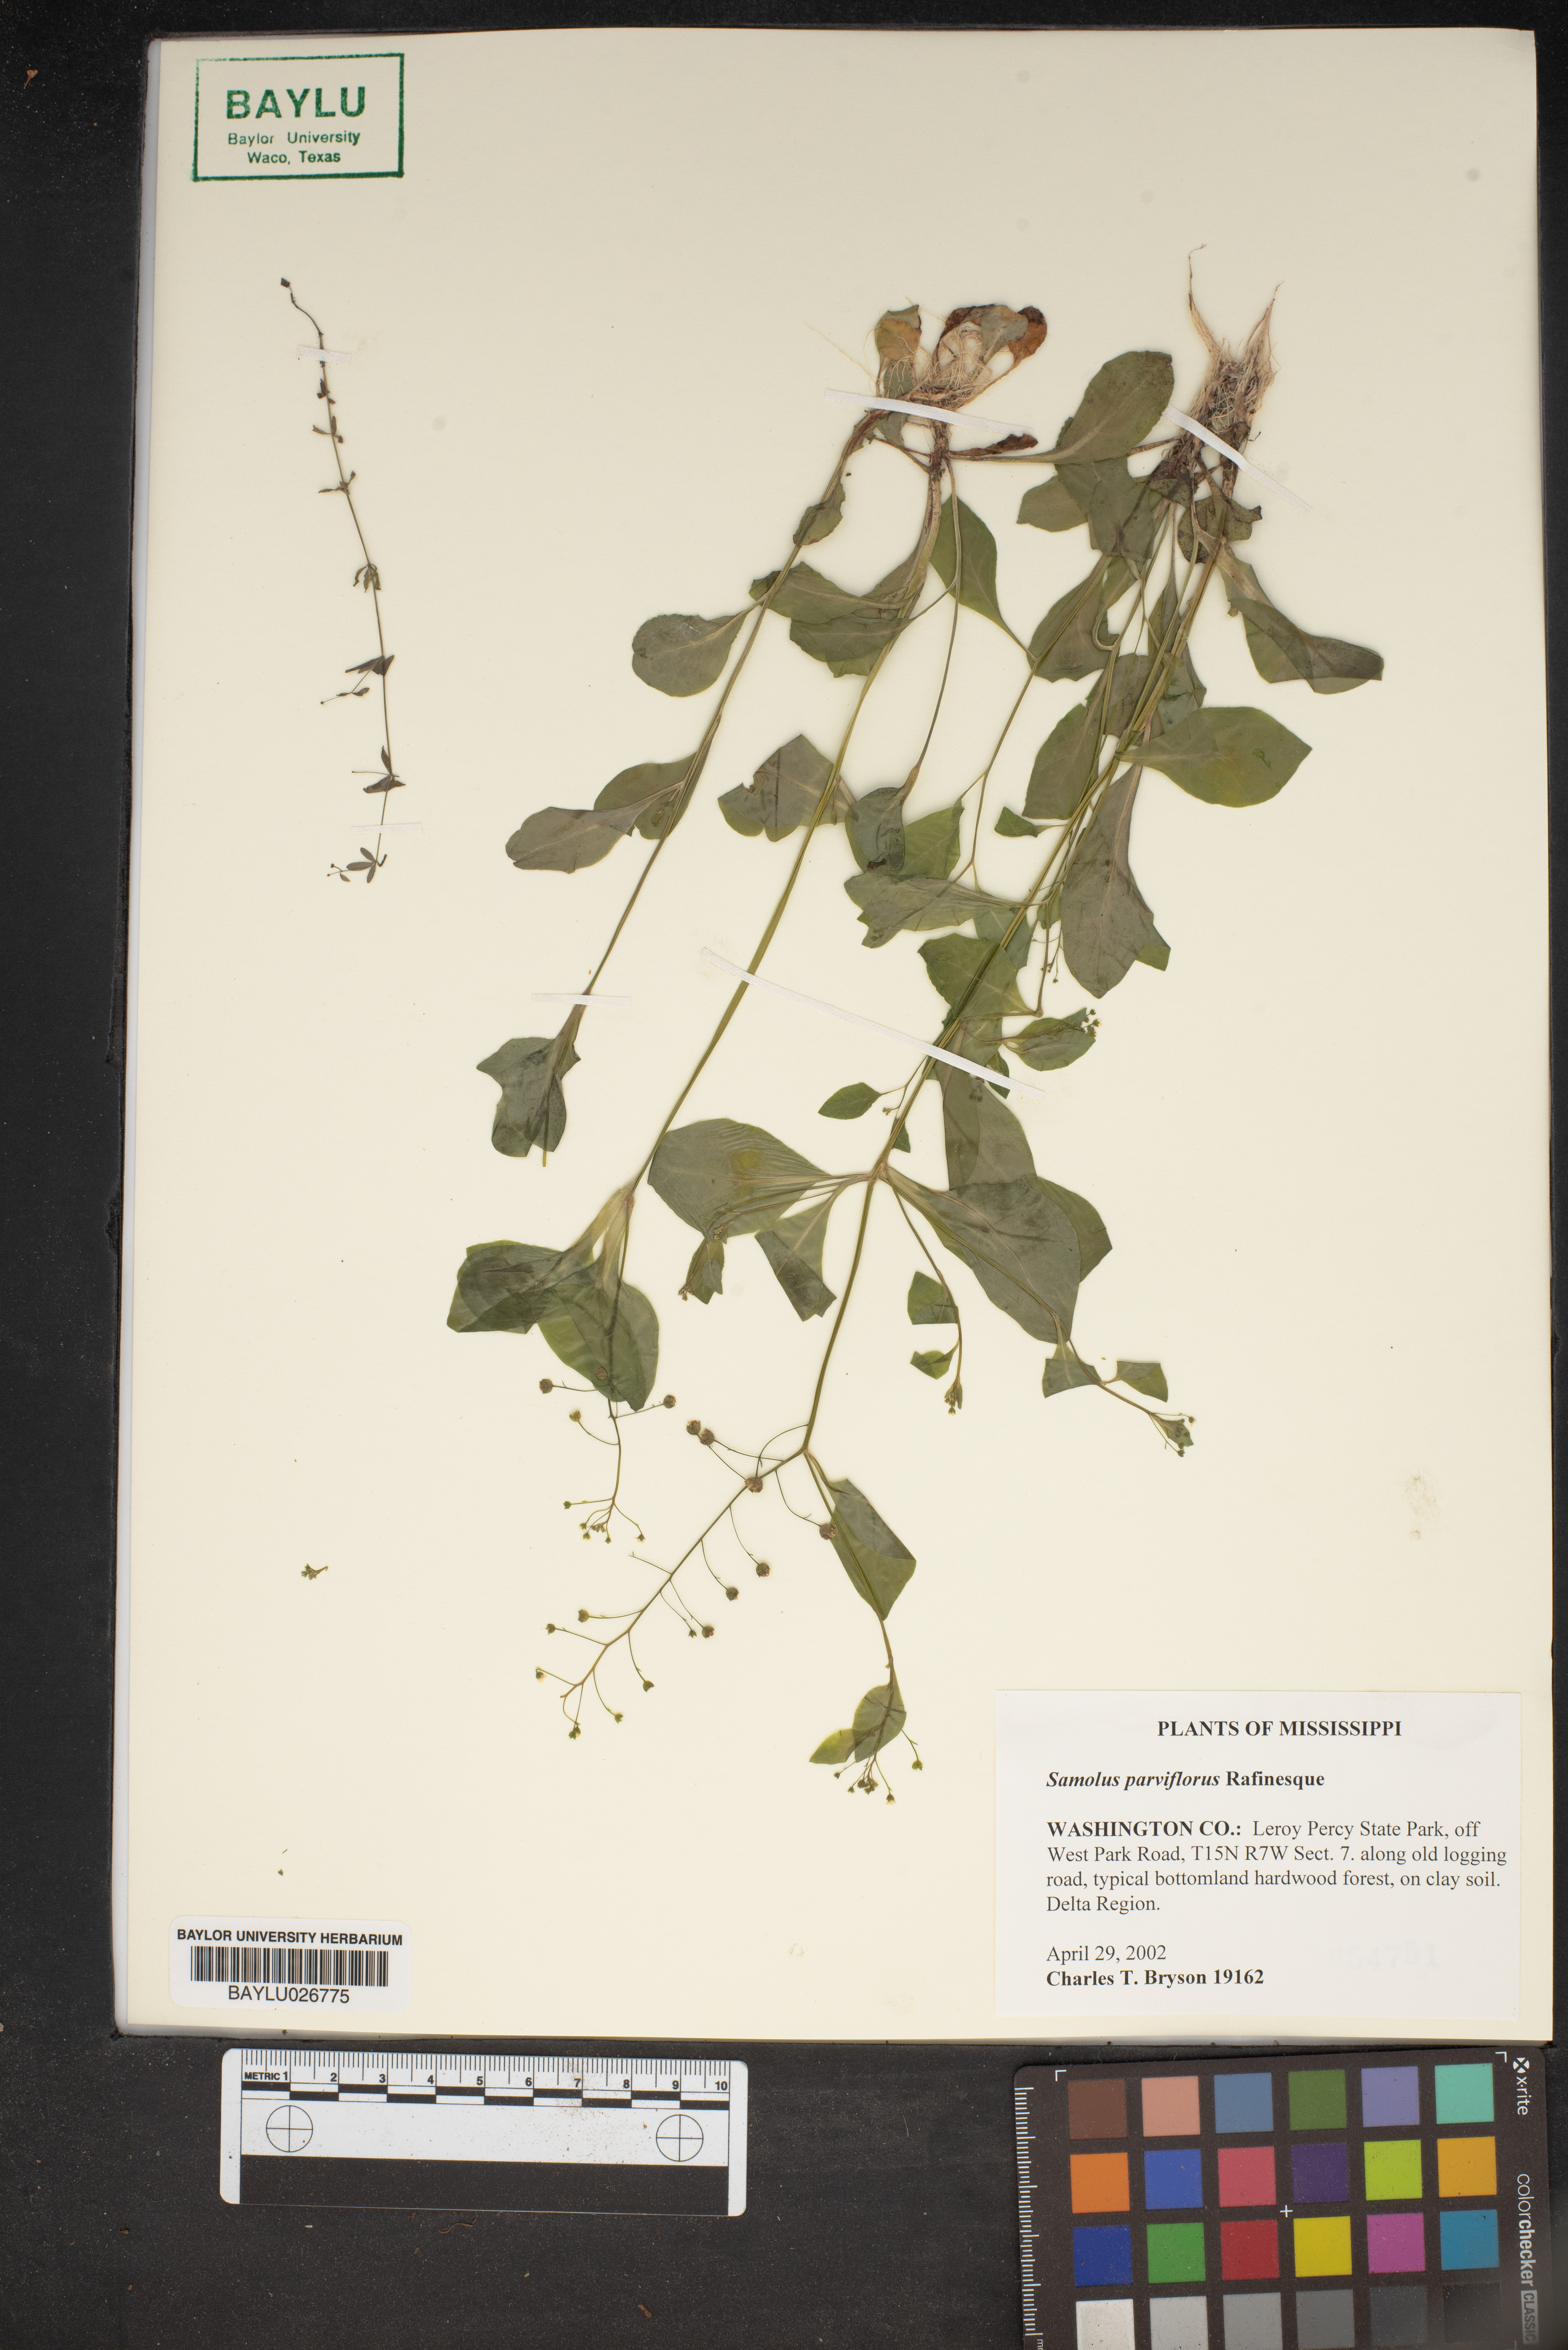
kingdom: Plantae
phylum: Tracheophyta
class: Magnoliopsida
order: Ericales
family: Primulaceae
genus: Samolus
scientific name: Samolus parviflorus
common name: False water pimpernel
